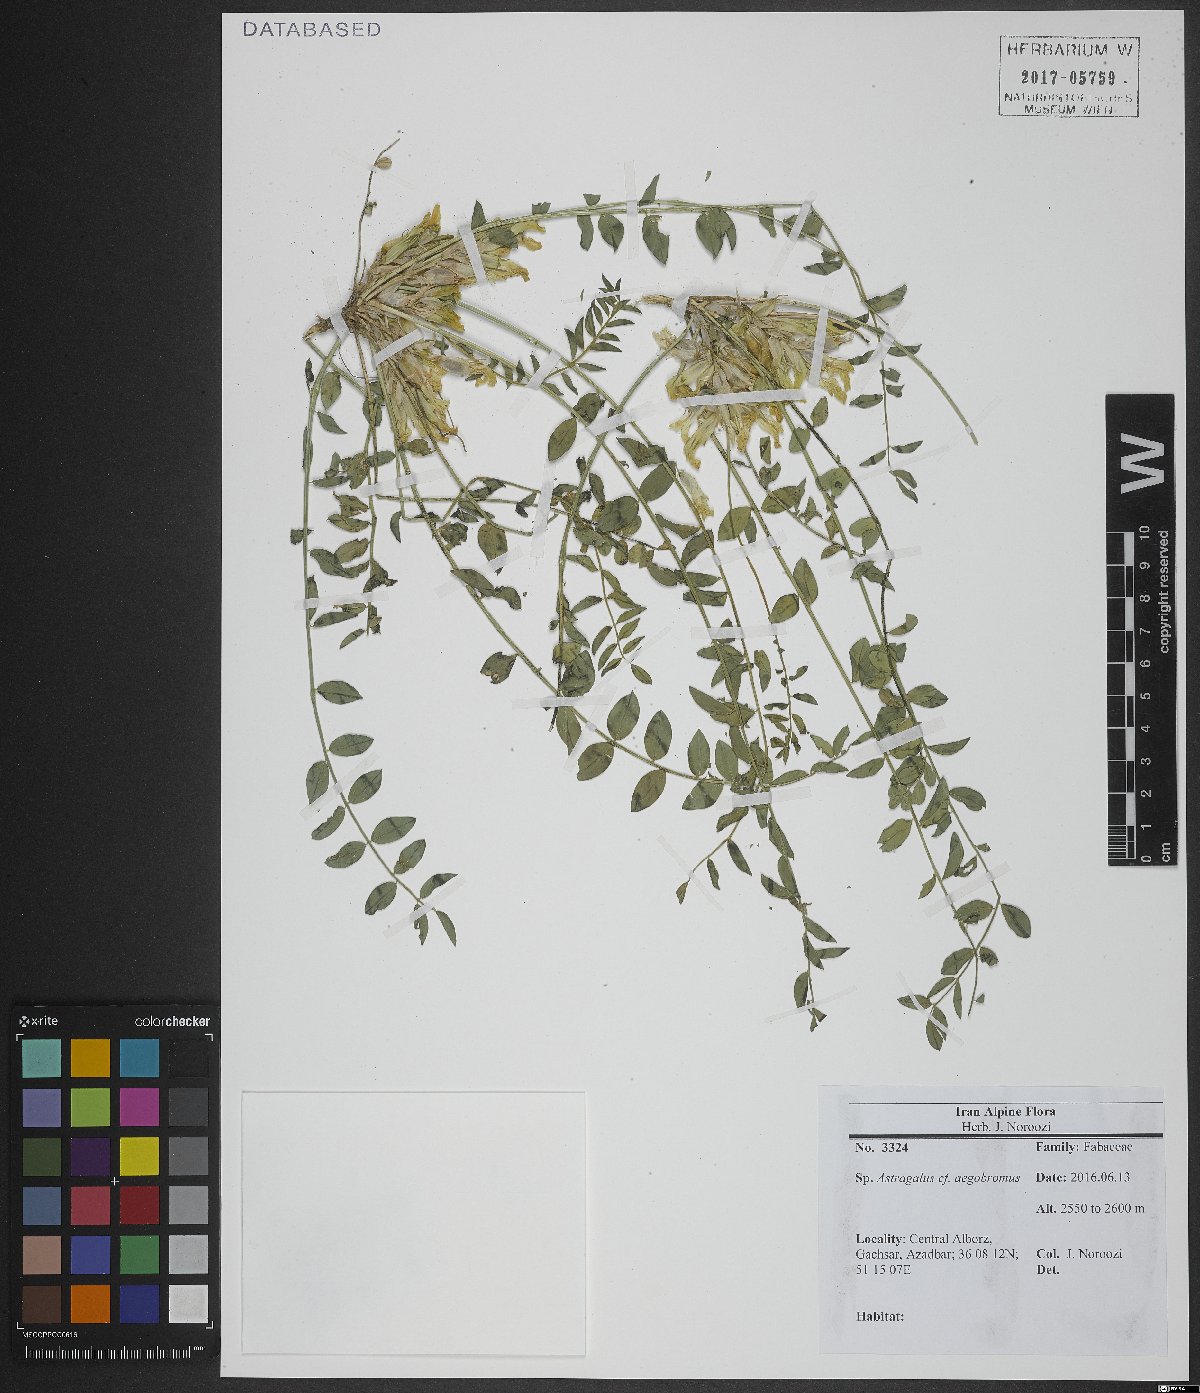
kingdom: Plantae
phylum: Tracheophyta
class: Magnoliopsida
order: Fabales
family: Fabaceae
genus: Astragalus
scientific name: Astragalus aegobromus
